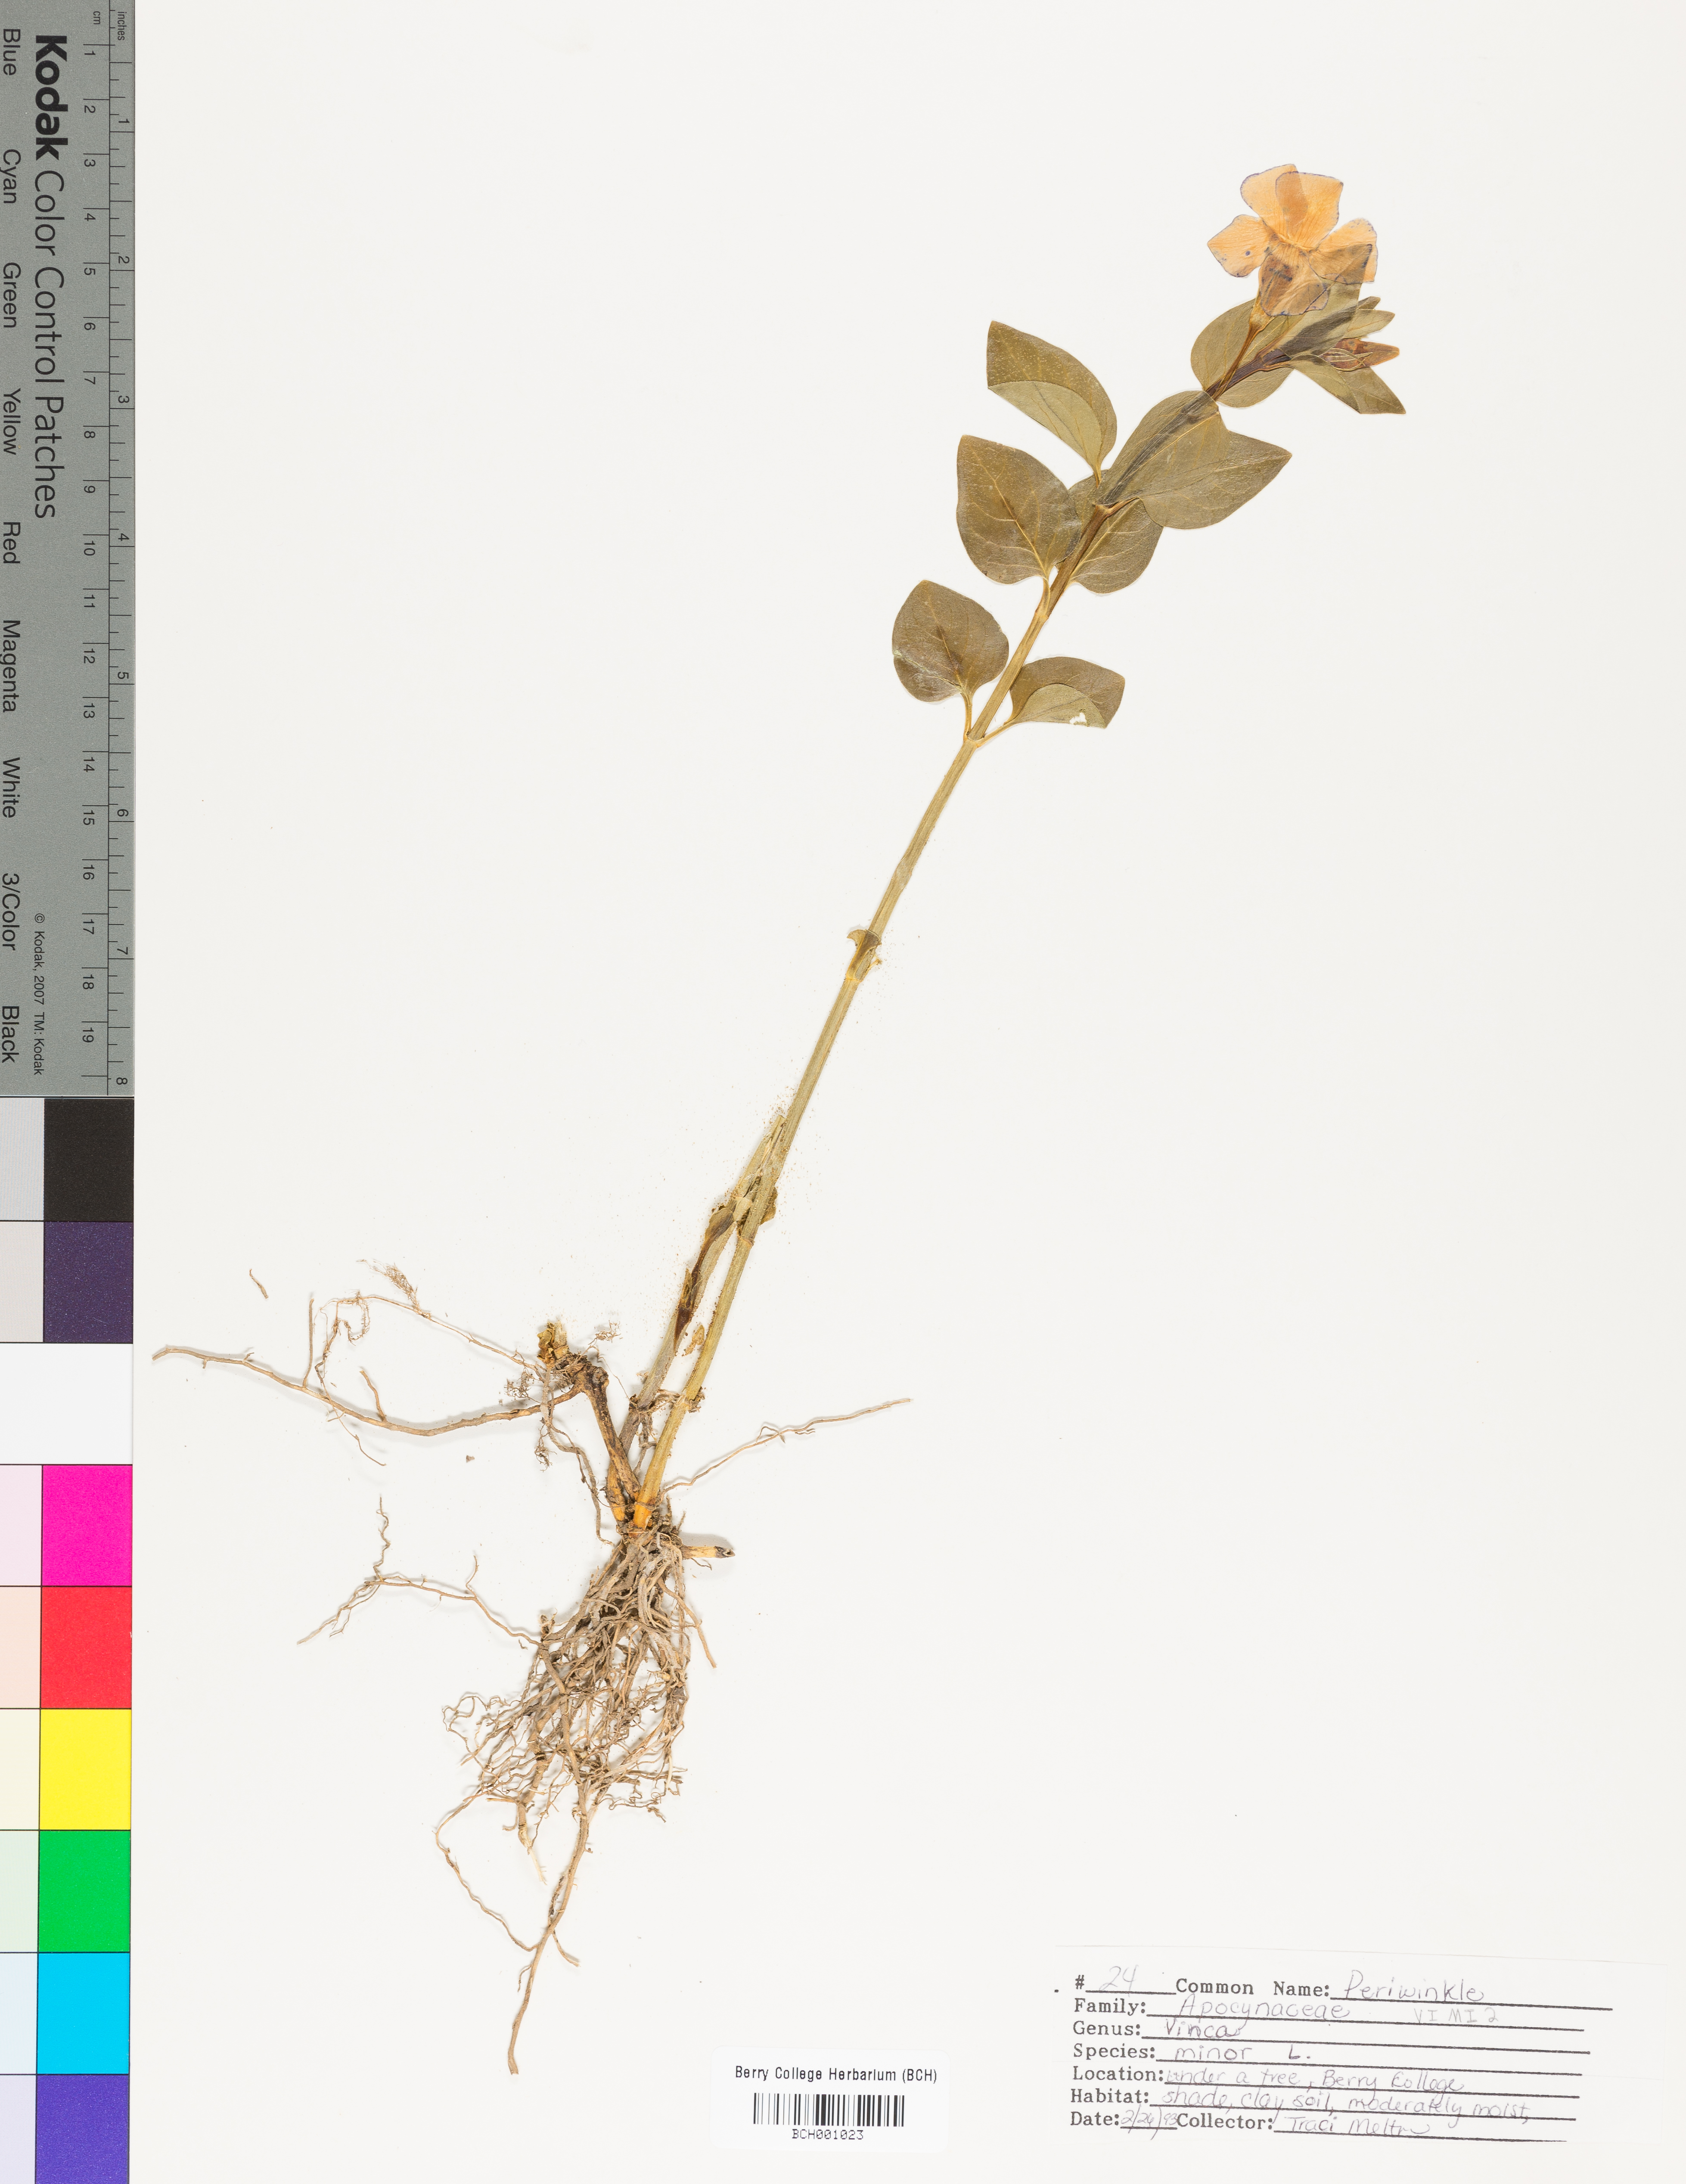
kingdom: Plantae
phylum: Tracheophyta
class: Magnoliopsida
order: Gentianales
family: Apocynaceae
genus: Vinca
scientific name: Vinca minor
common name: Lesser periwinkle
